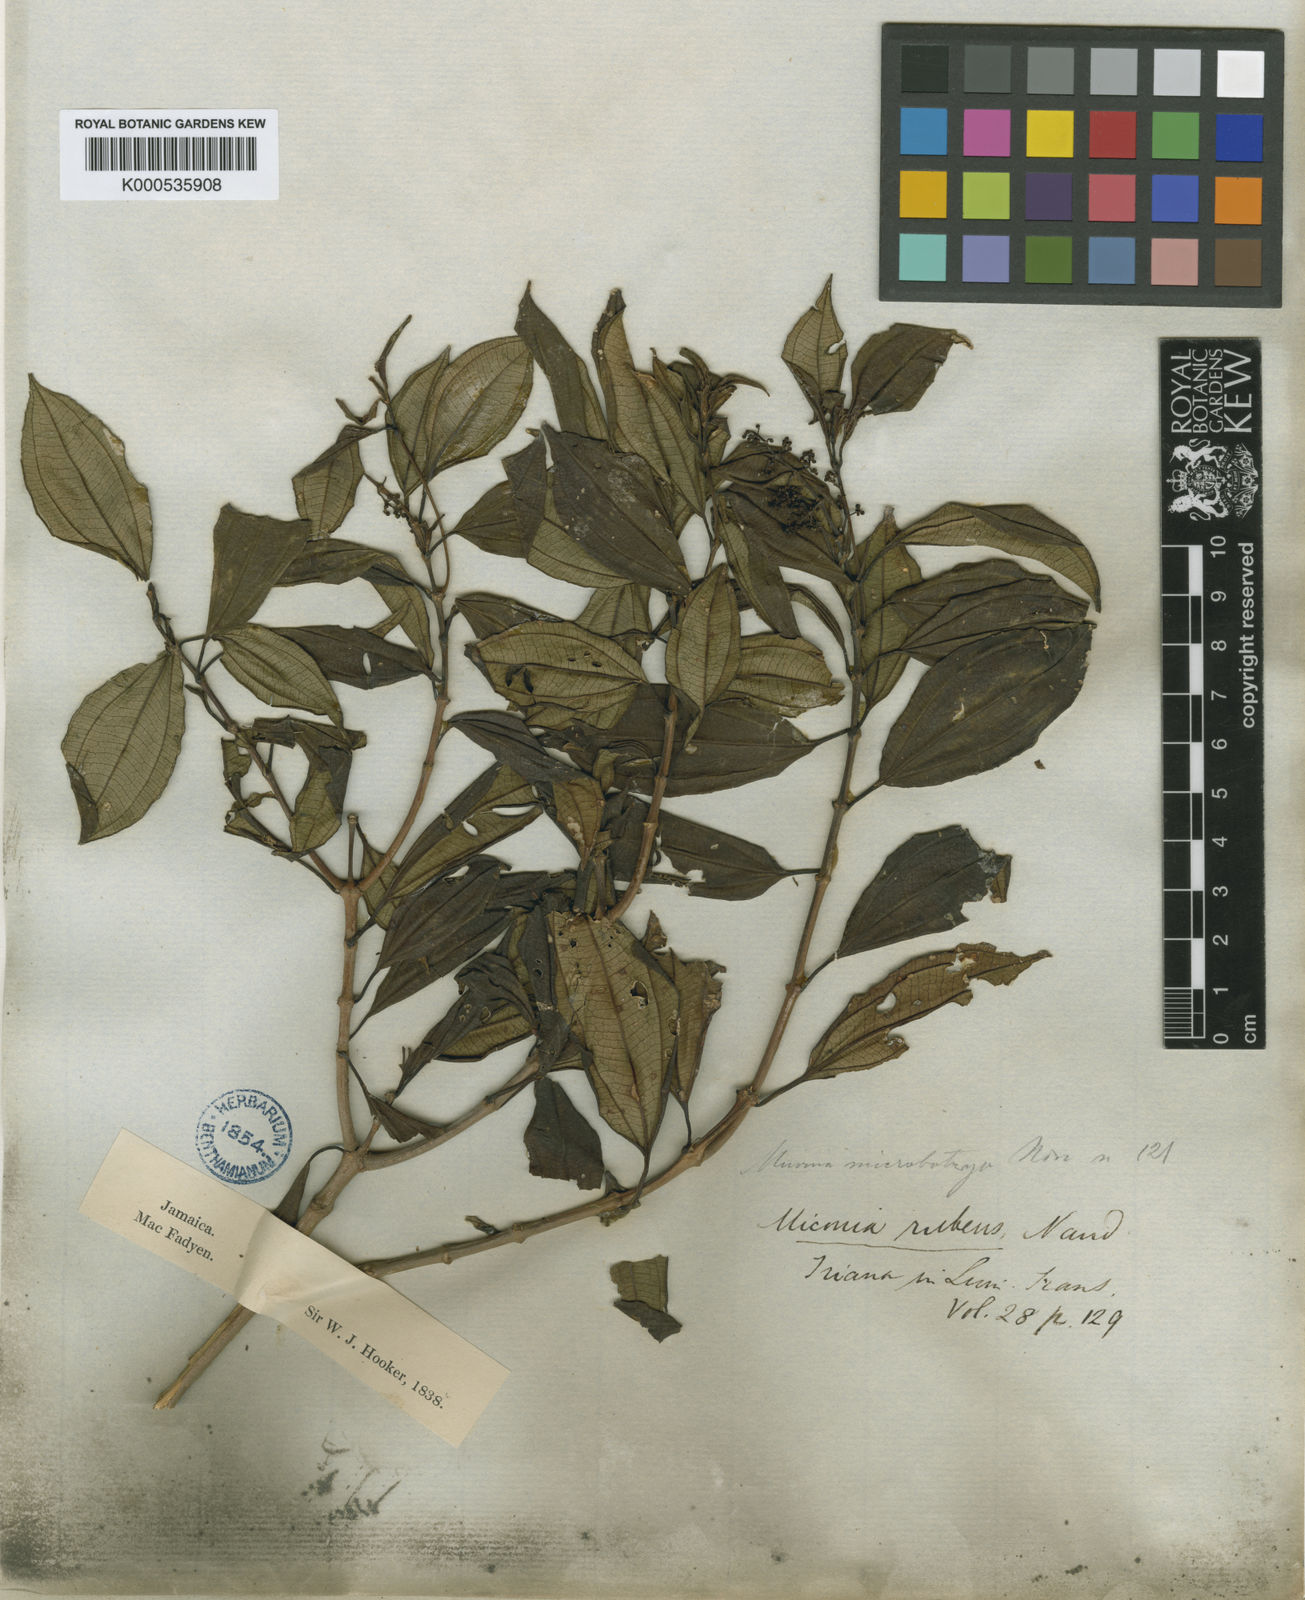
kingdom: Plantae
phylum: Tracheophyta
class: Magnoliopsida
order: Myrtales
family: Melastomataceae
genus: Miconia
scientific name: Miconia rubens
